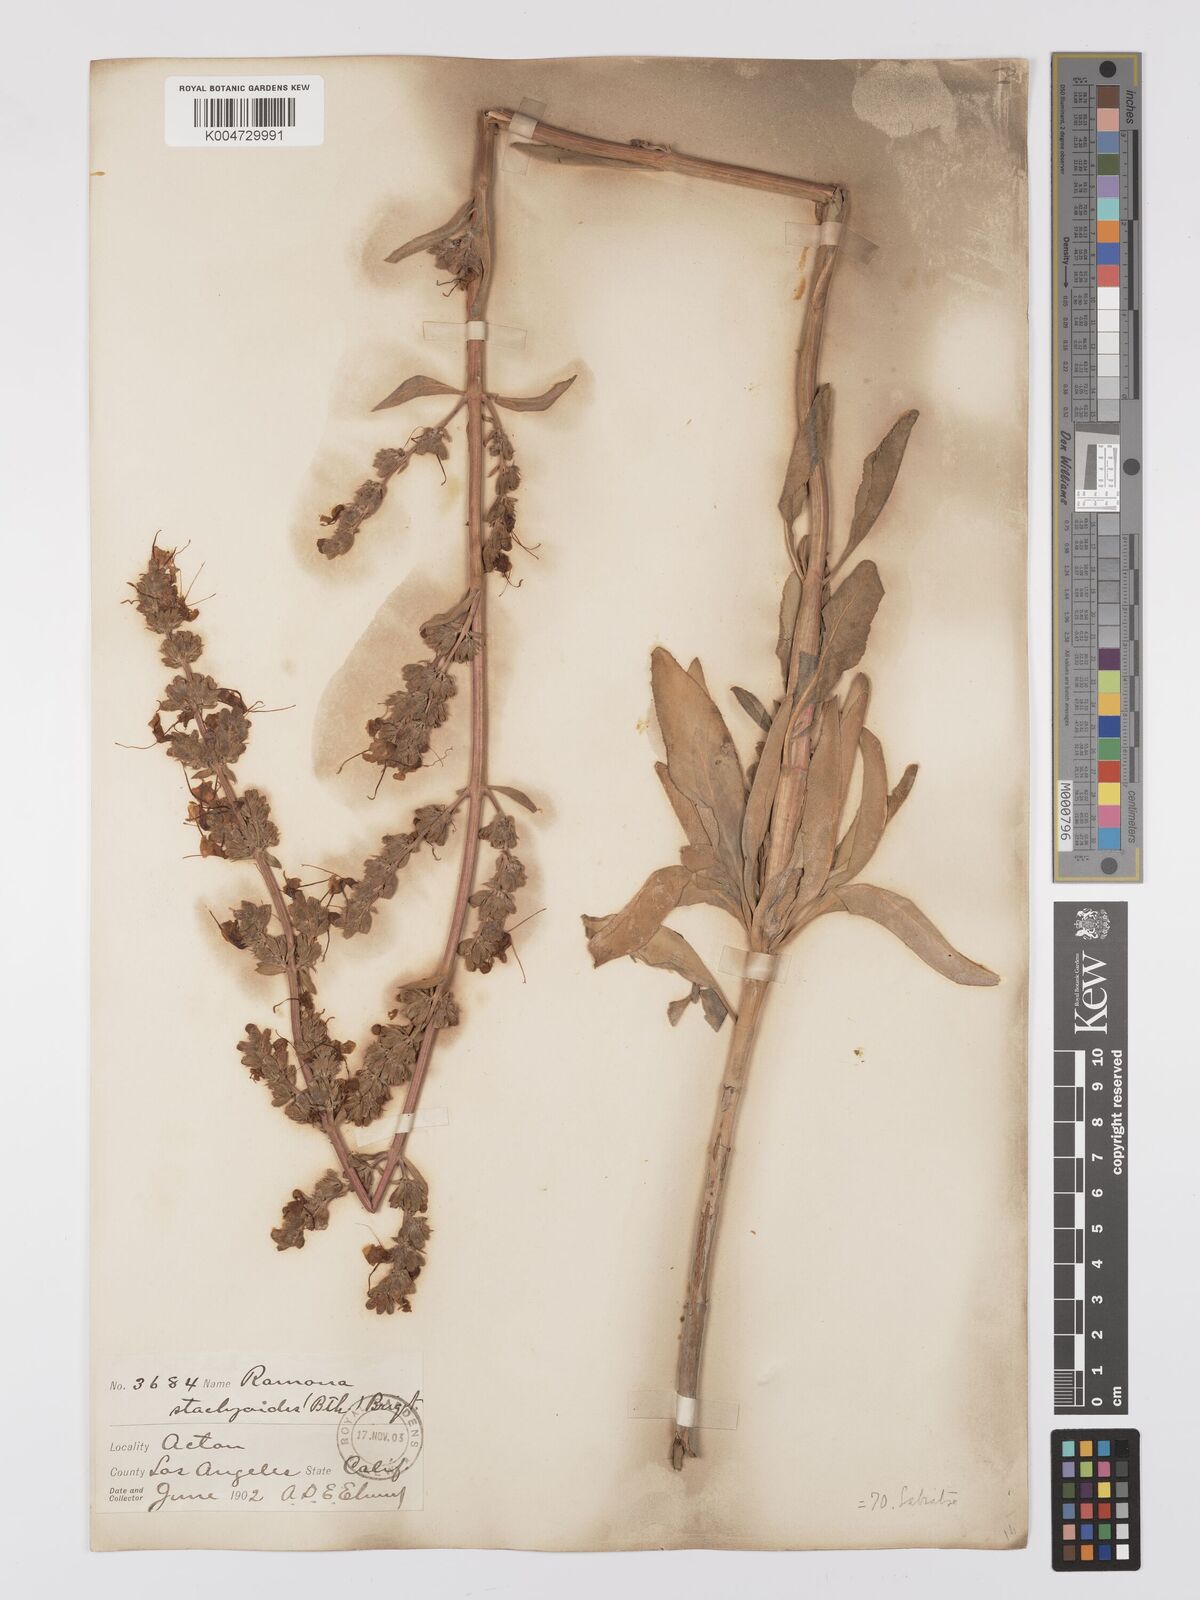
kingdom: Plantae
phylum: Tracheophyta
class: Magnoliopsida
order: Lamiales
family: Lamiaceae
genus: Salvia
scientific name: Salvia apiana
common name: White sage
